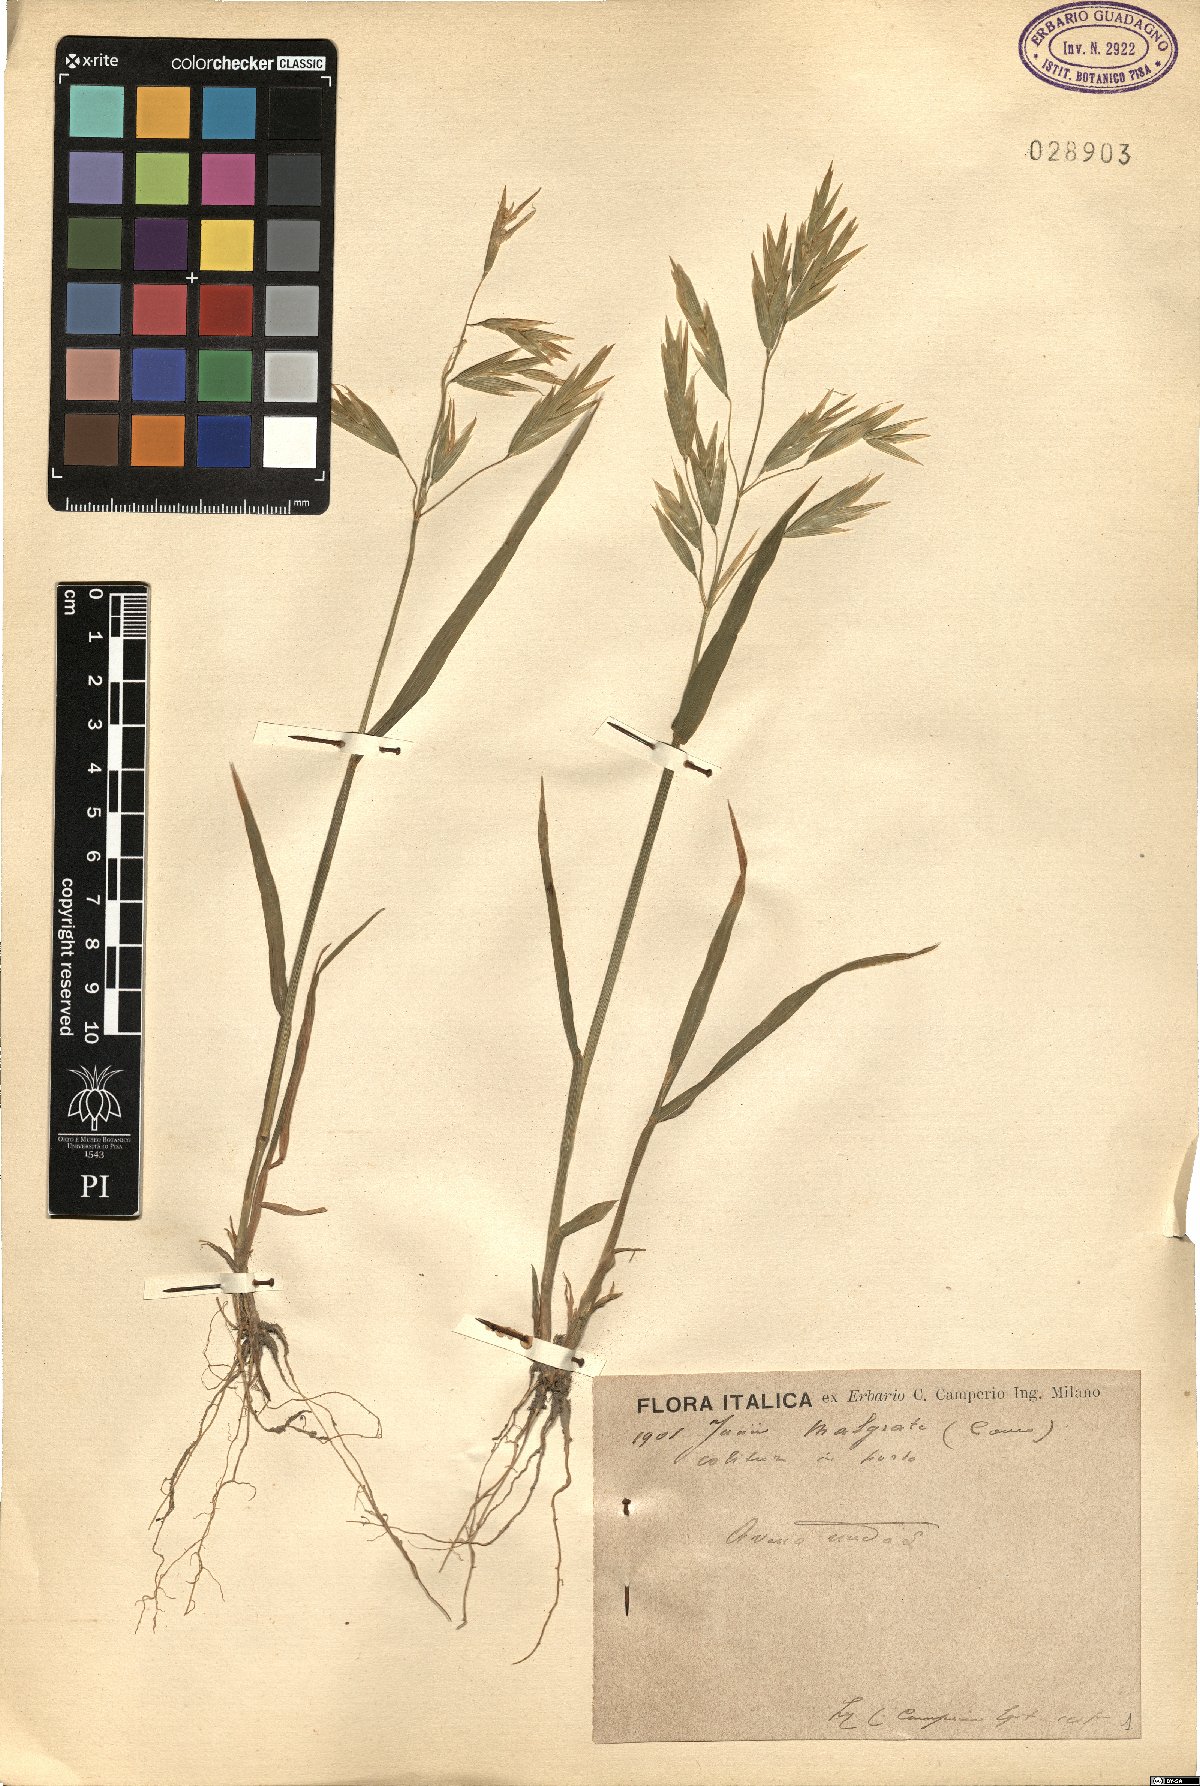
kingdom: Plantae
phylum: Tracheophyta
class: Liliopsida
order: Poales
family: Poaceae
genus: Bromus
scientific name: Bromus catharticus
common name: Rescuegrass
